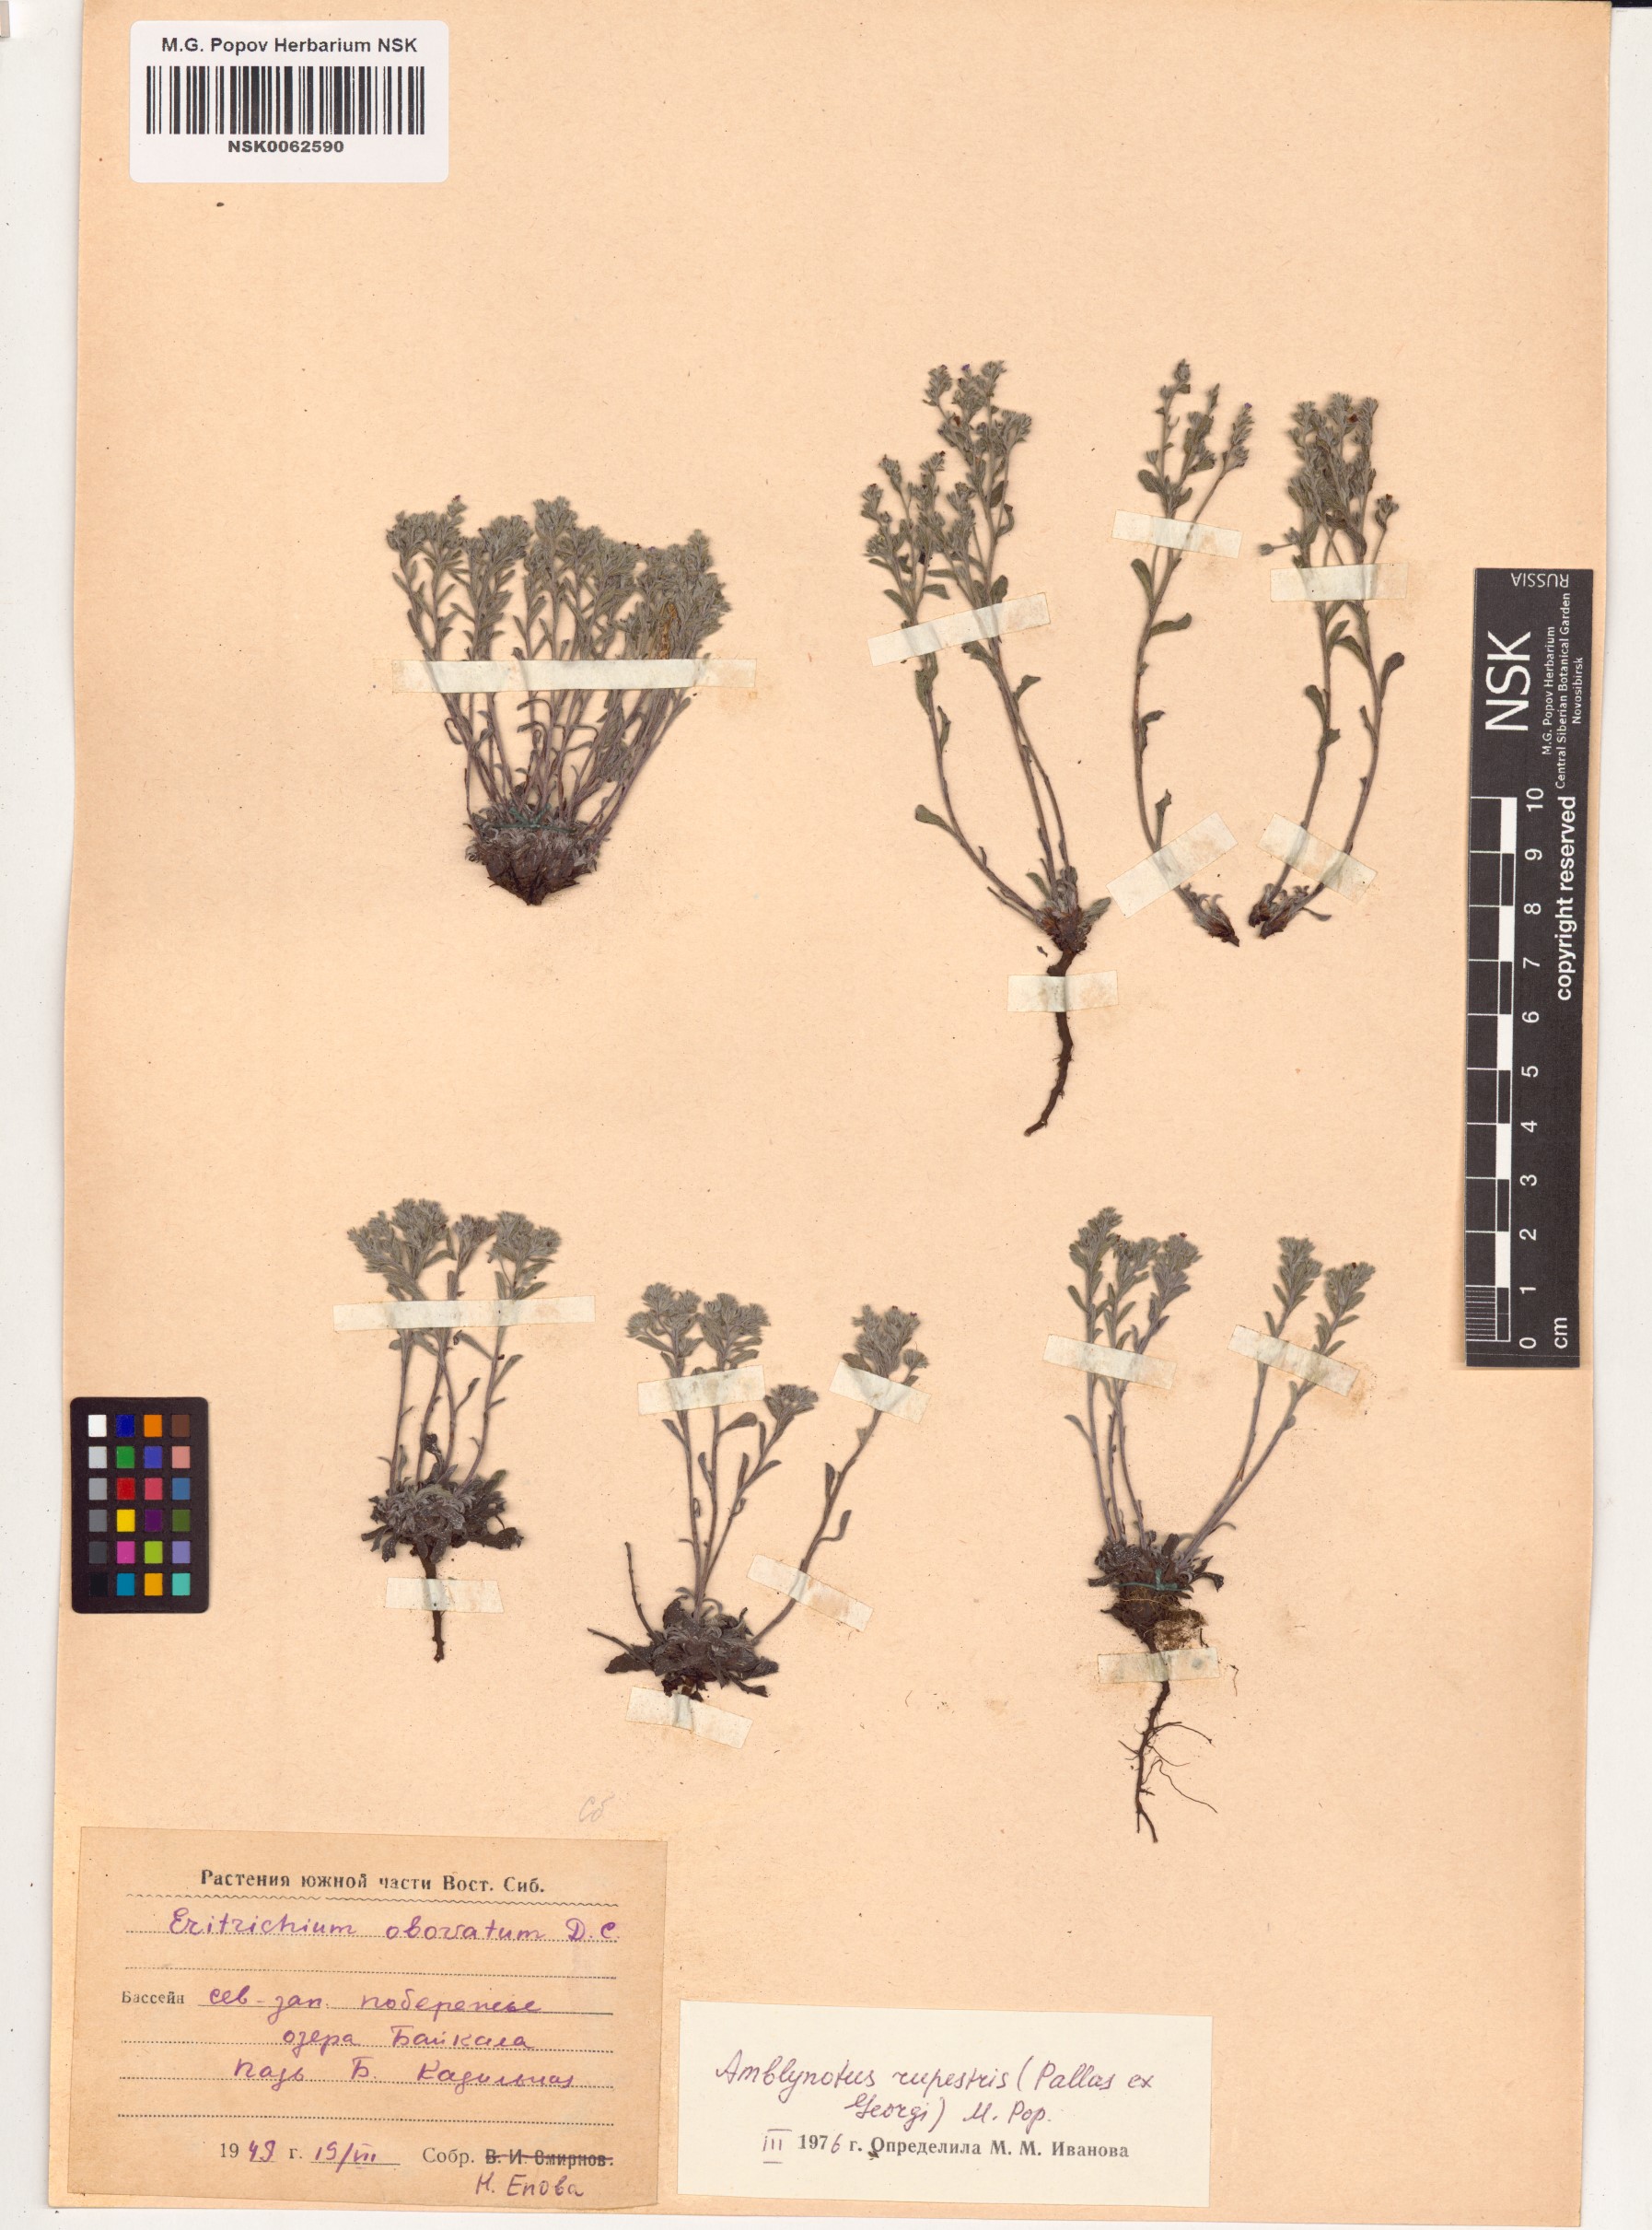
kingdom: Plantae
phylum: Tracheophyta
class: Magnoliopsida
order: Boraginales
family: Boraginaceae
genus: Eritrichium
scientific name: Eritrichium rupestre
